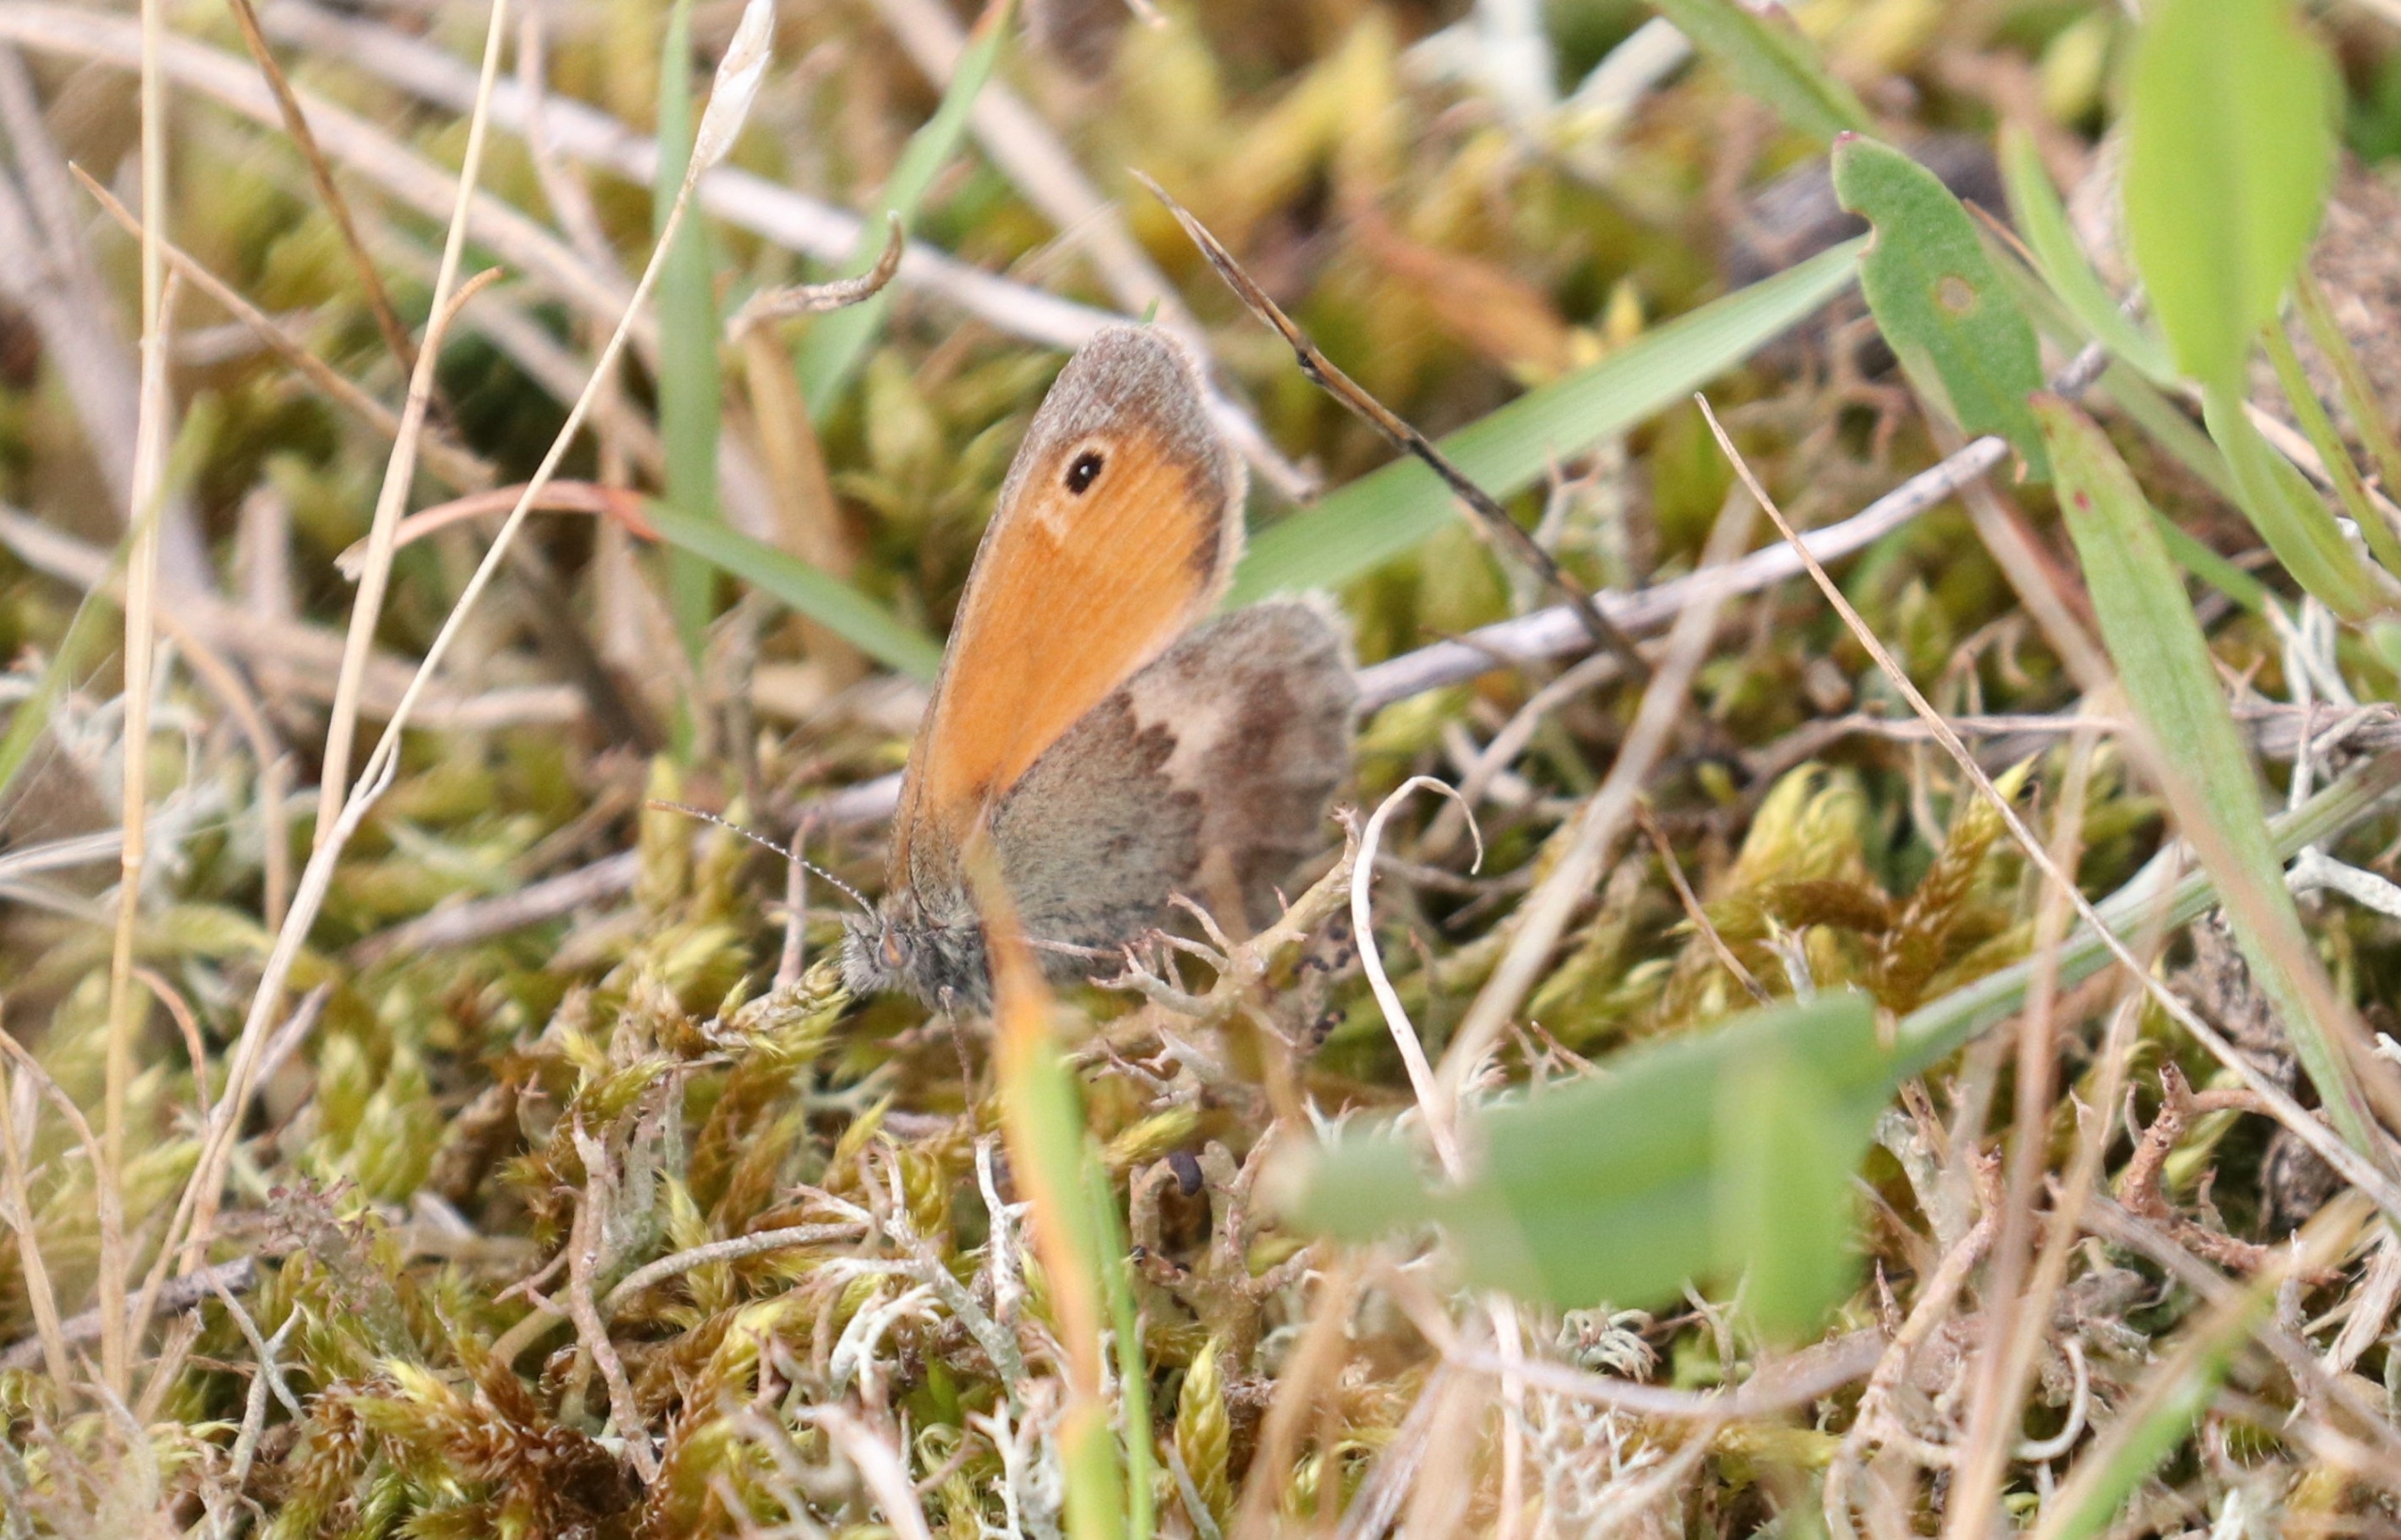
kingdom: Animalia
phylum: Arthropoda
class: Insecta
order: Lepidoptera
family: Nymphalidae
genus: Coenonympha
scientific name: Coenonympha pamphilus
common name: Okkergul randøje
